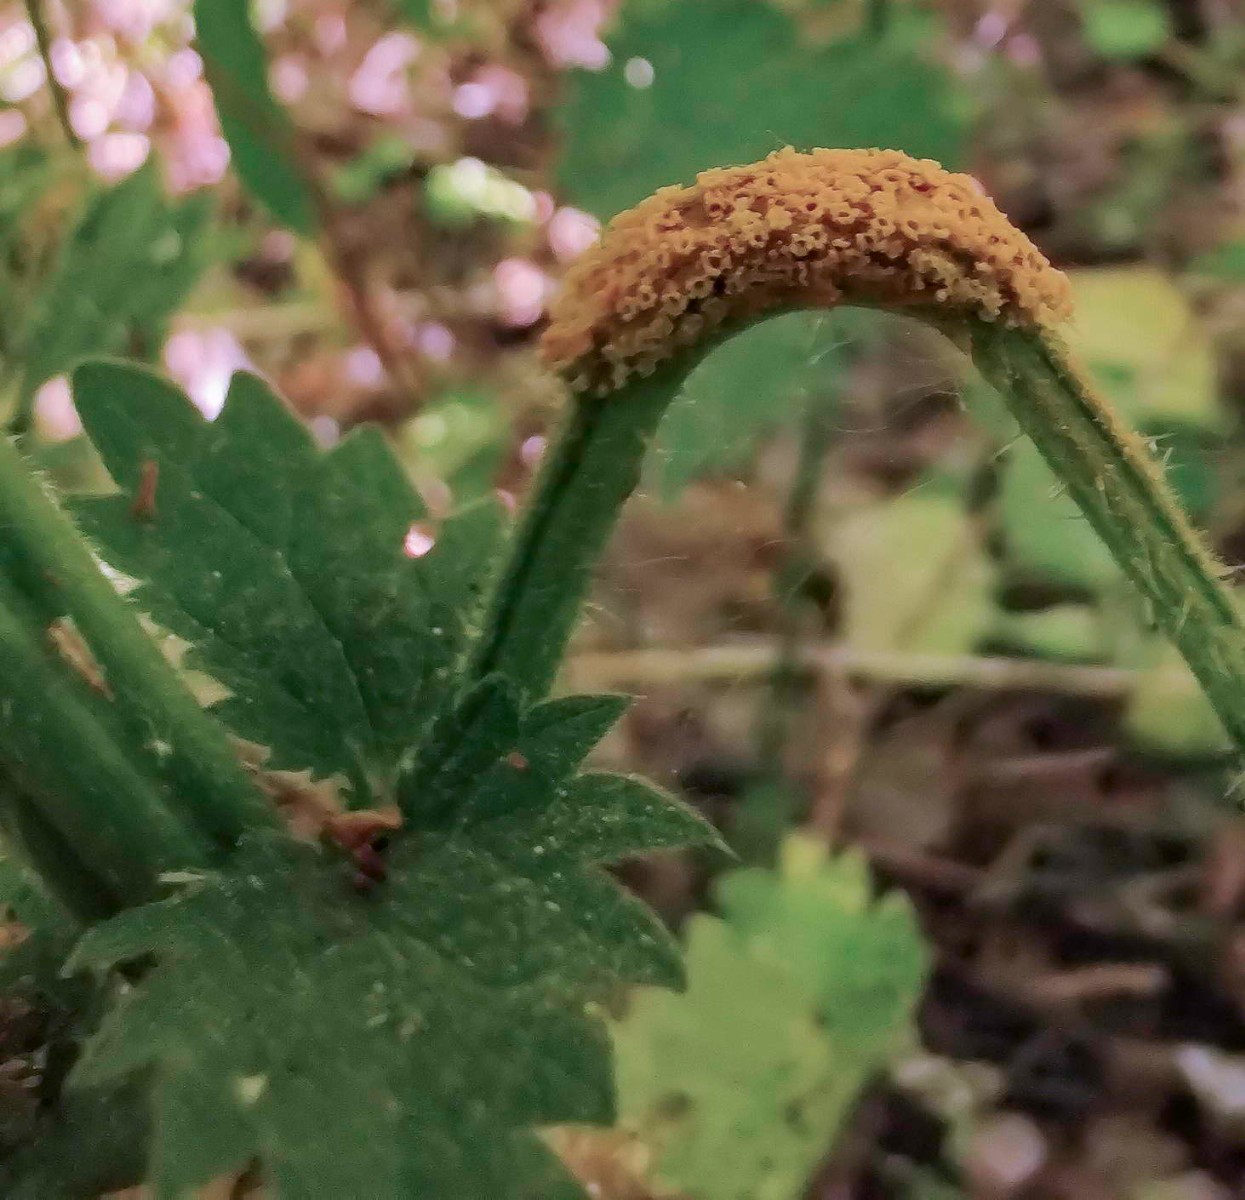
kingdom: Fungi
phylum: Basidiomycota
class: Pucciniomycetes
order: Pucciniales
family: Pucciniaceae
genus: Puccinia
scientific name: Puccinia urticata
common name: nældegalle-tvecellerust
